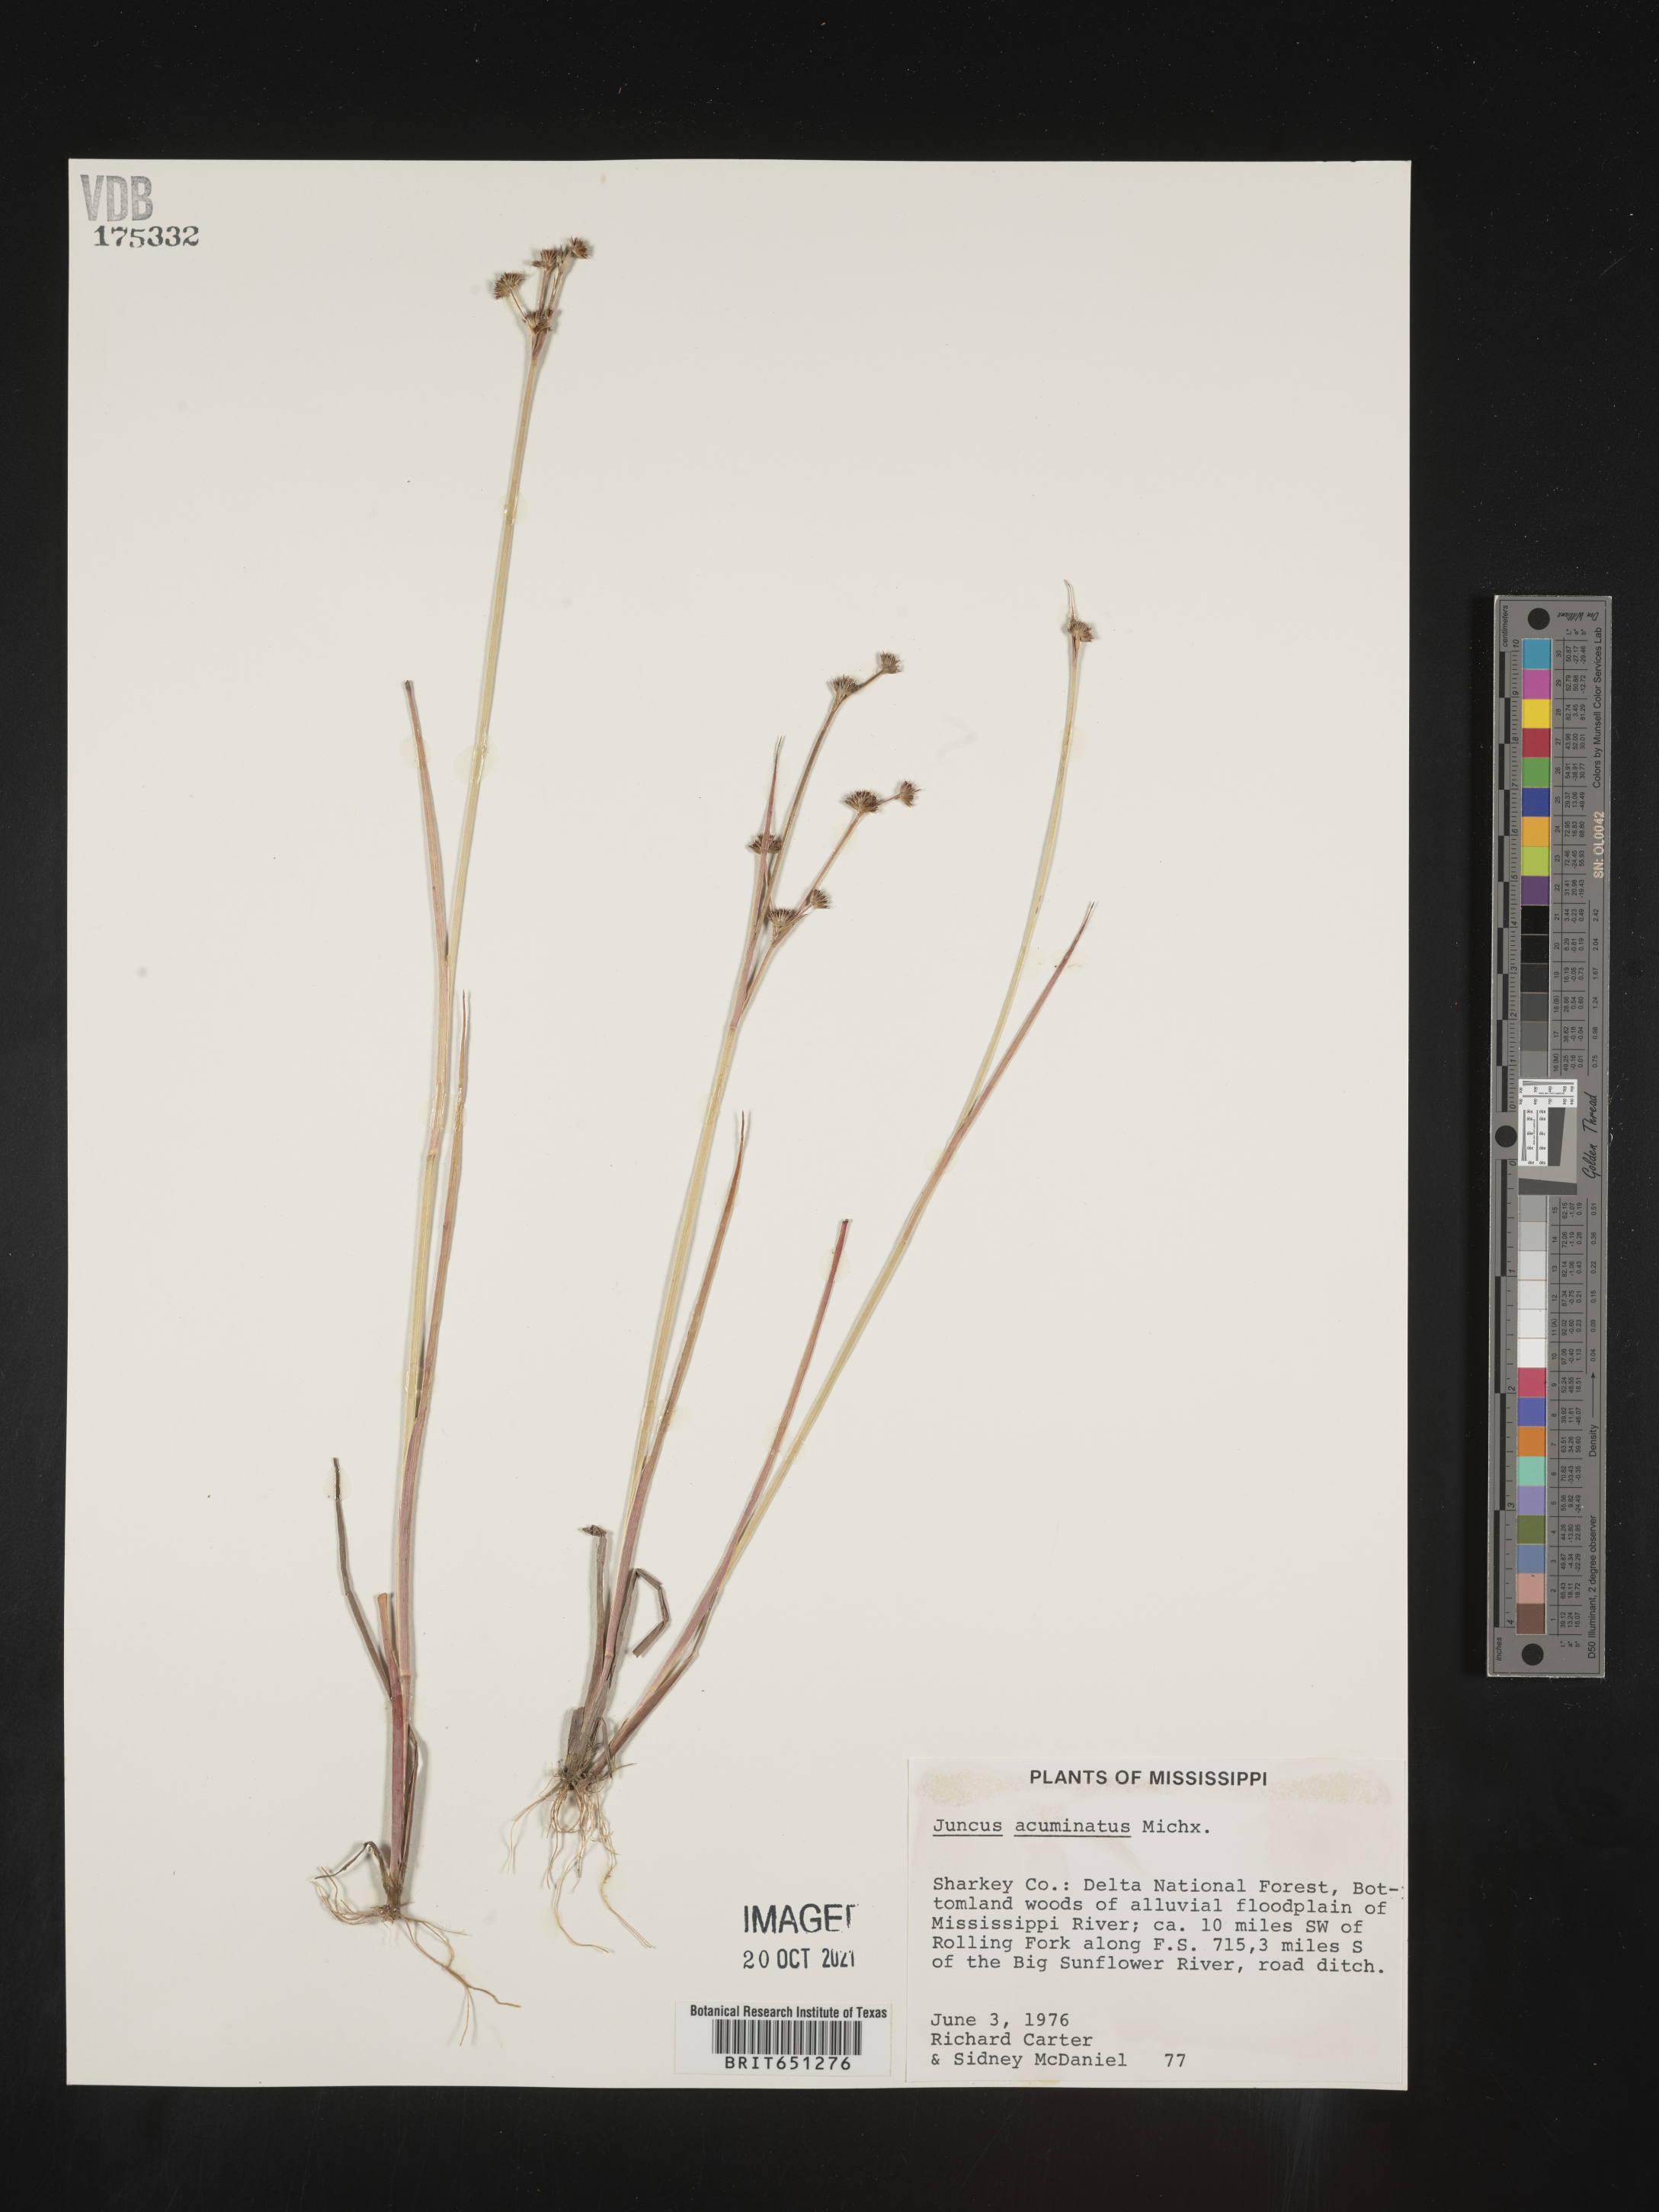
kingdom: Plantae
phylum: Tracheophyta
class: Liliopsida
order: Poales
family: Juncaceae
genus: Juncus
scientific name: Juncus acuminatus
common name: Knotty-leaved rush
